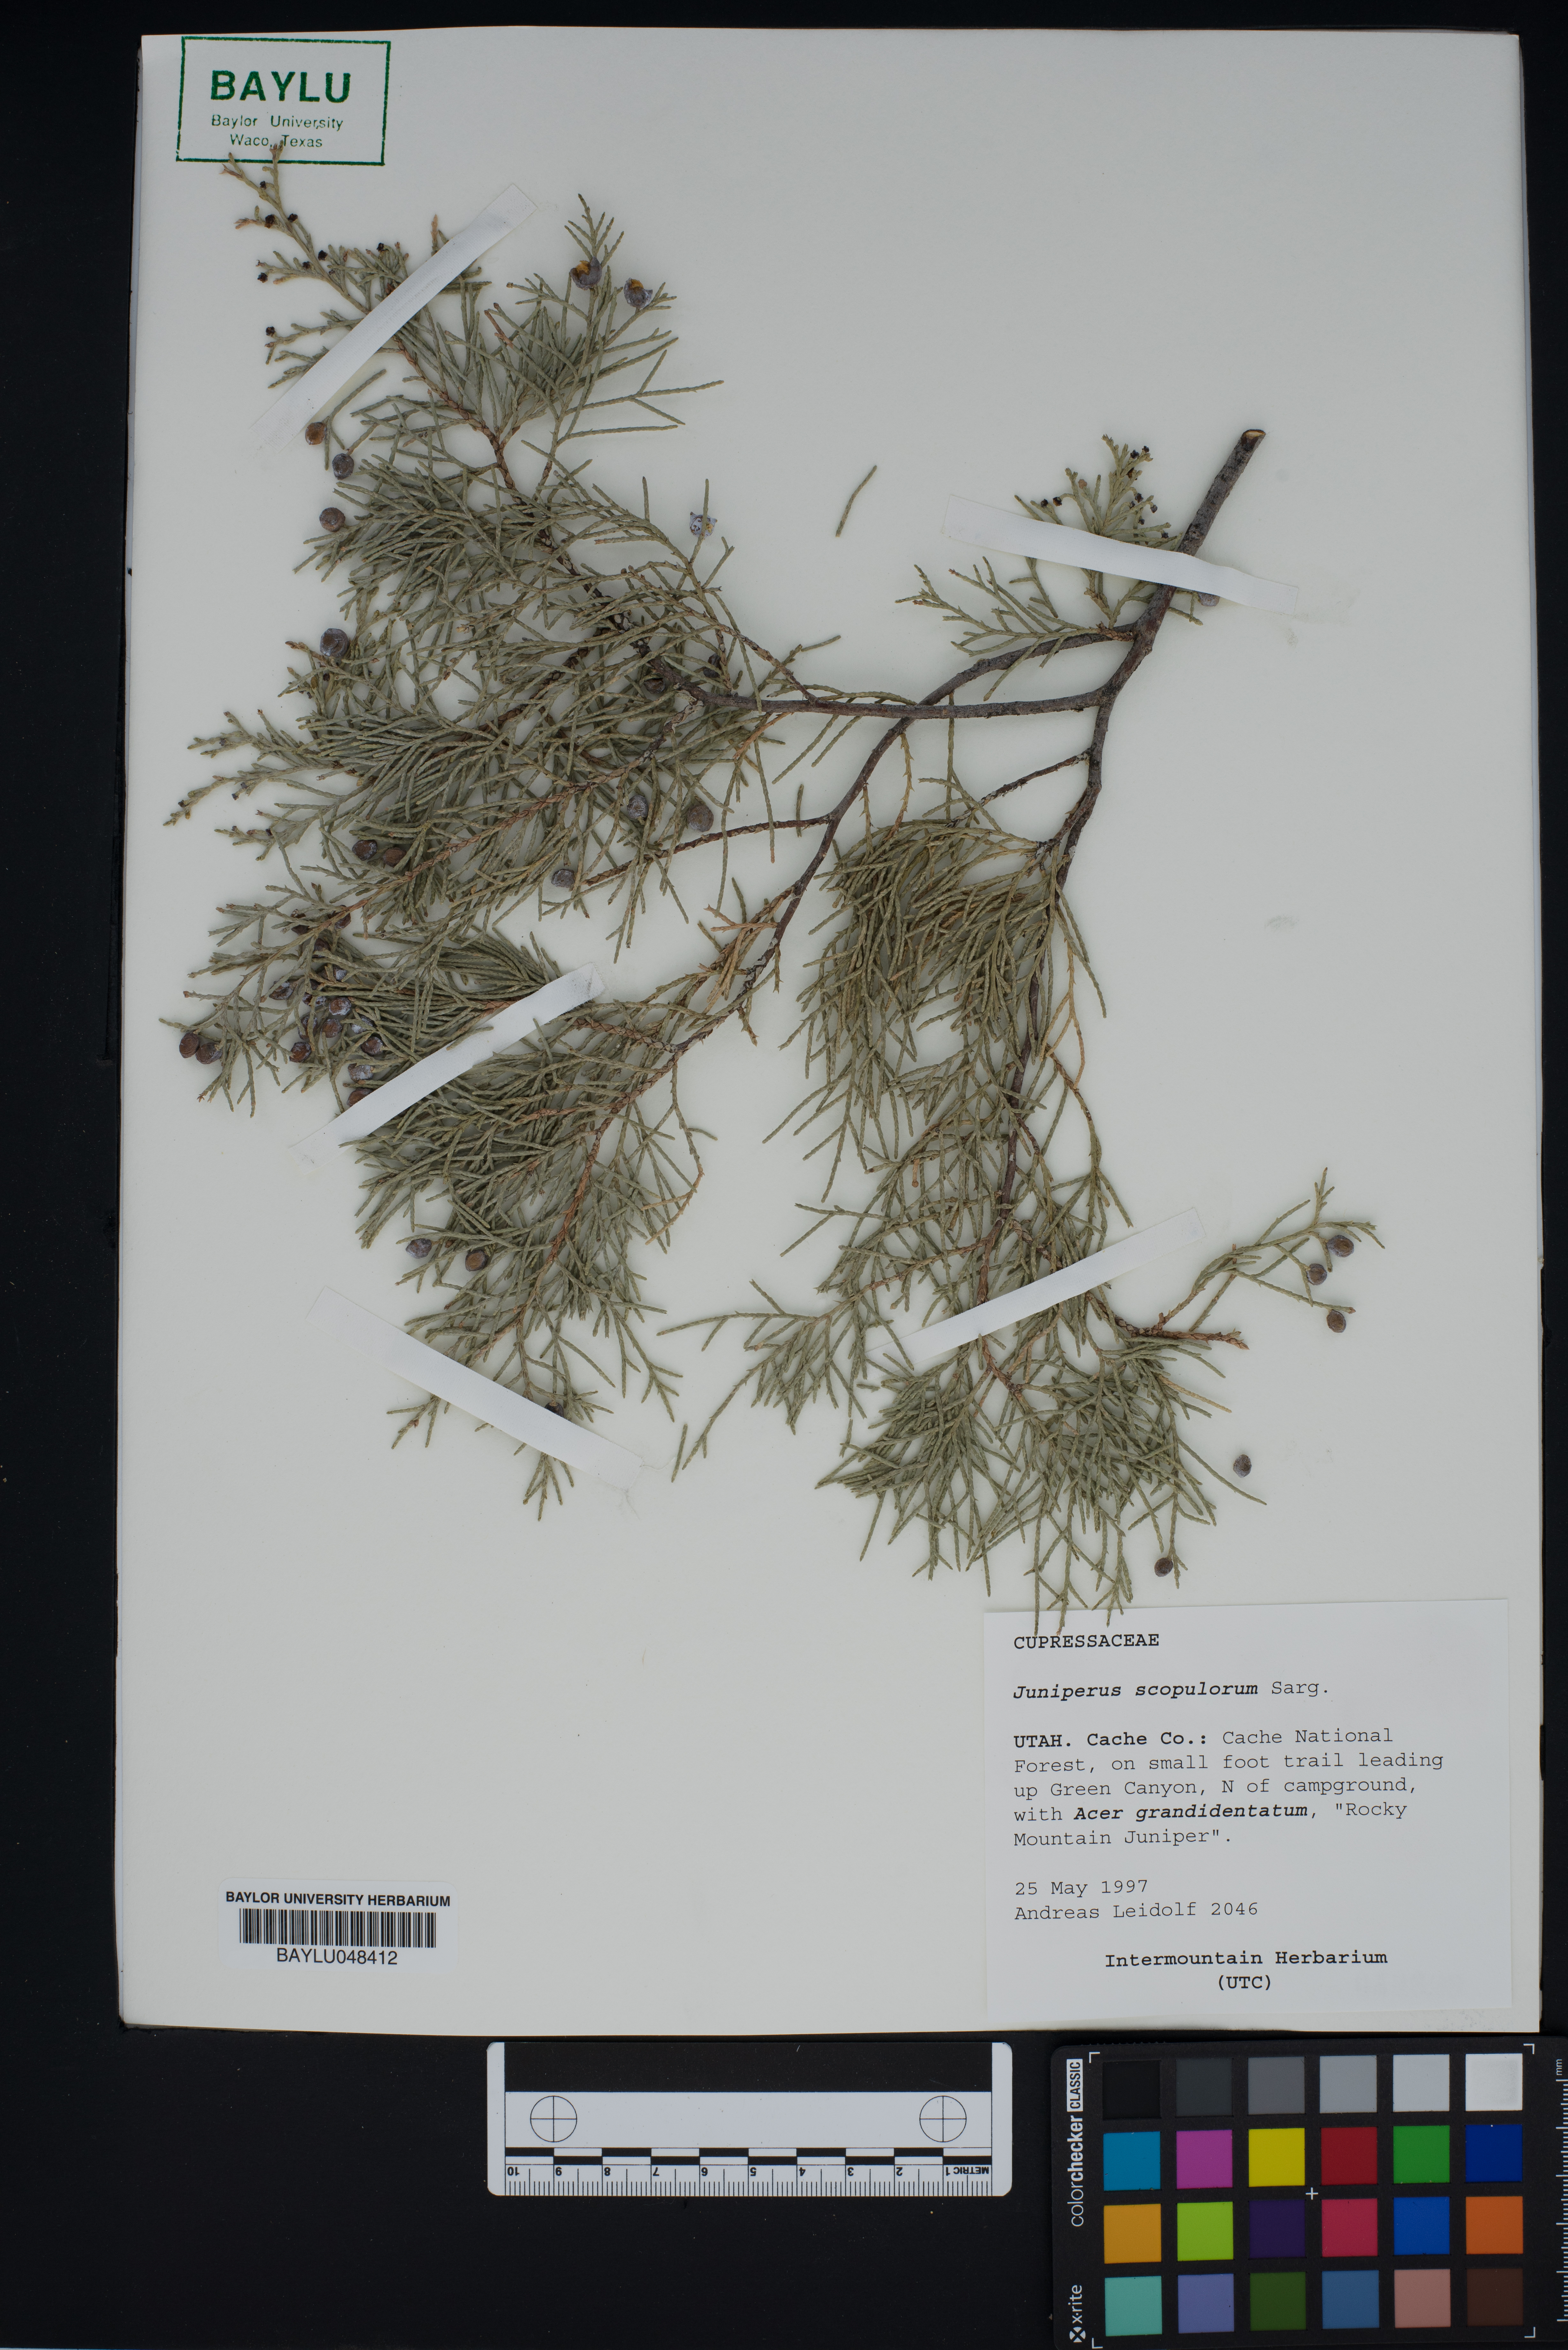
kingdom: Plantae
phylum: Tracheophyta
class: Pinopsida
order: Pinales
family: Cupressaceae
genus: Juniperus
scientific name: Juniperus scopulorum
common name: Rocky mountain juniper
